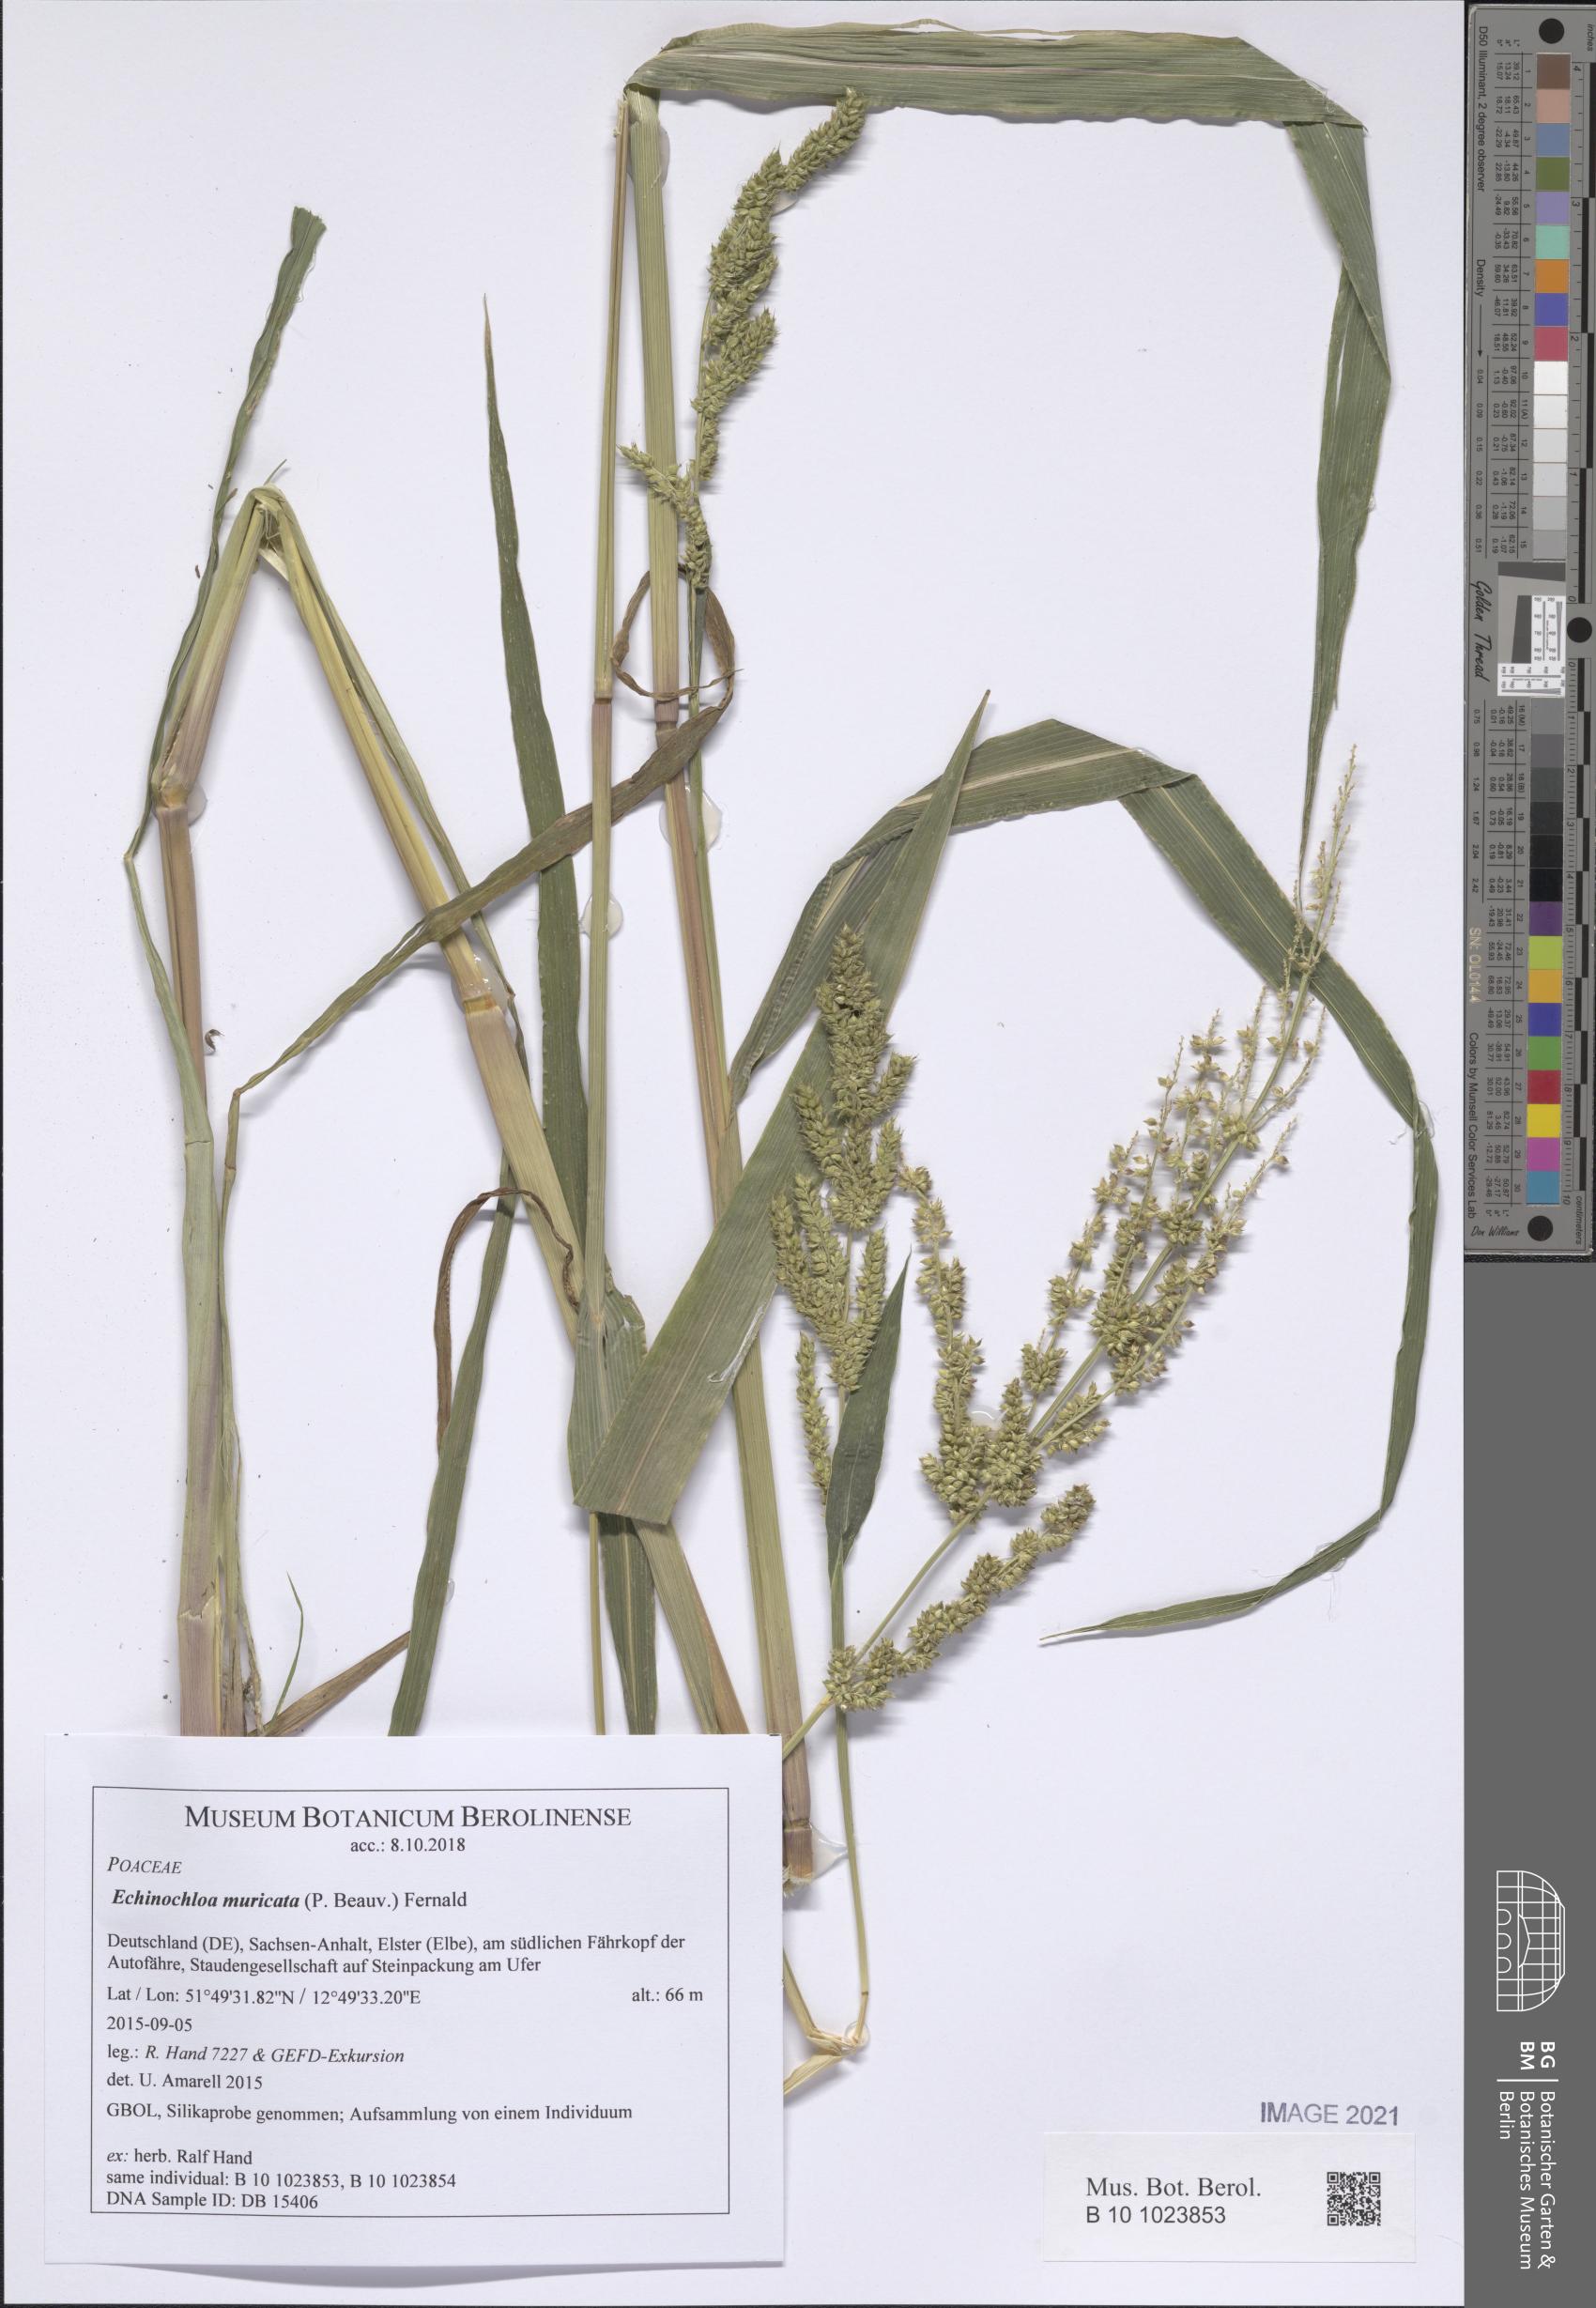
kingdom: Plantae
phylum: Tracheophyta
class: Liliopsida
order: Poales
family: Poaceae
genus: Echinochloa
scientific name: Echinochloa muricata
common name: American barnyard grass
